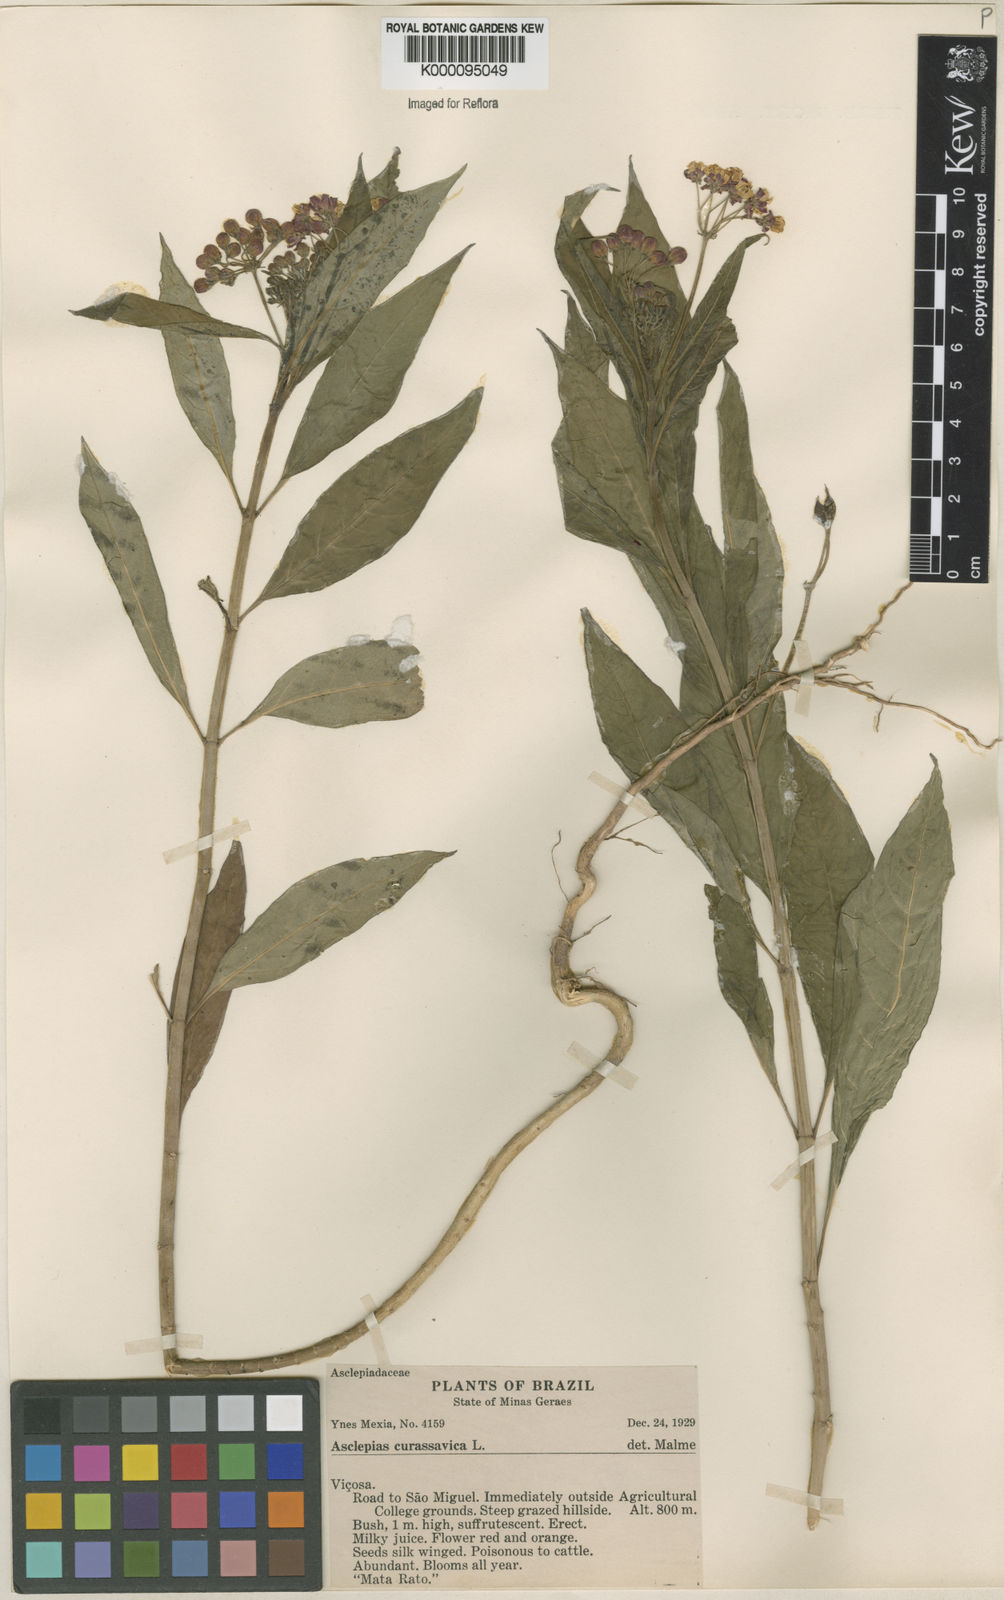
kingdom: Plantae
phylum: Tracheophyta
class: Magnoliopsida
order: Gentianales
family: Apocynaceae
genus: Asclepias
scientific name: Asclepias curassavica
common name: Bloodflower
